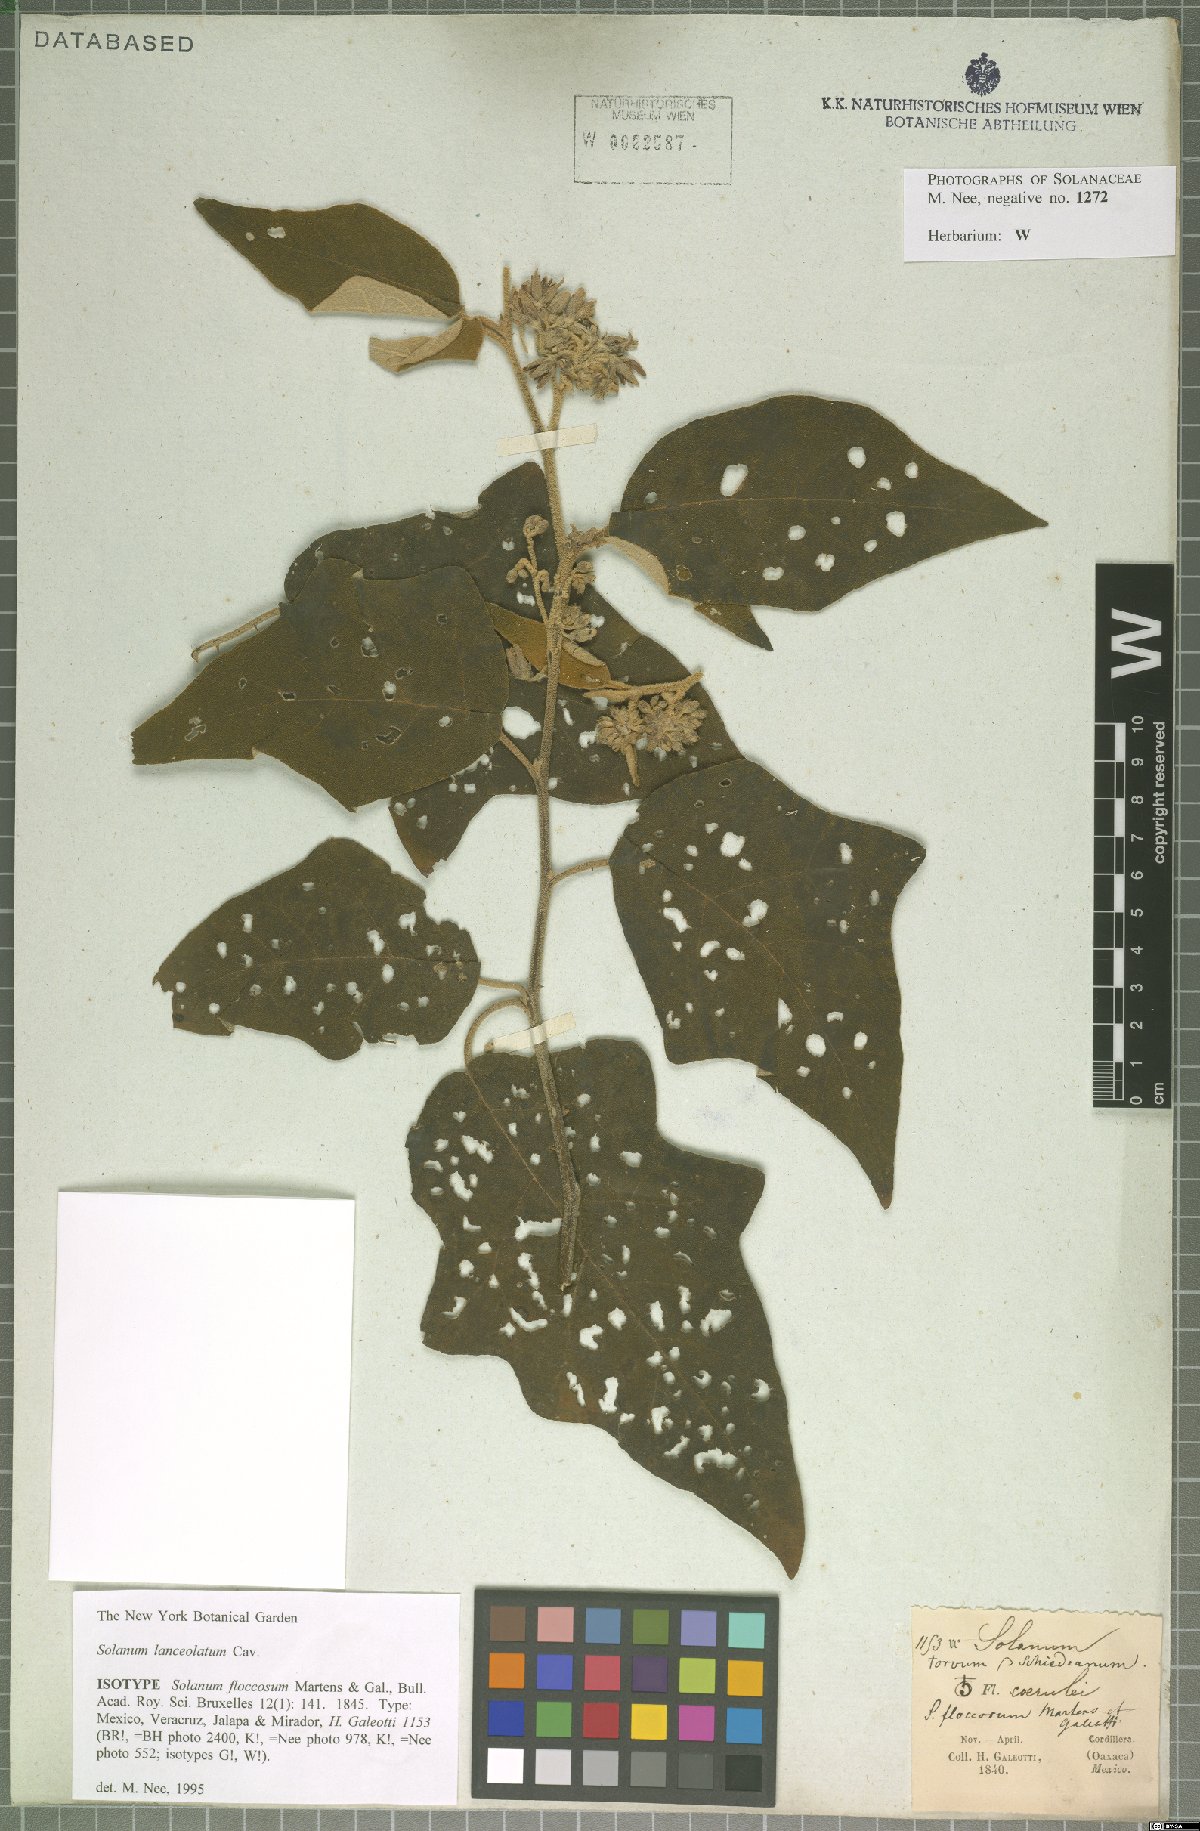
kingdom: Plantae
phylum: Tracheophyta
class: Magnoliopsida
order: Solanales
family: Solanaceae
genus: Solanum
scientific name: Solanum lanceolatum
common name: Orangeberry nightshade
